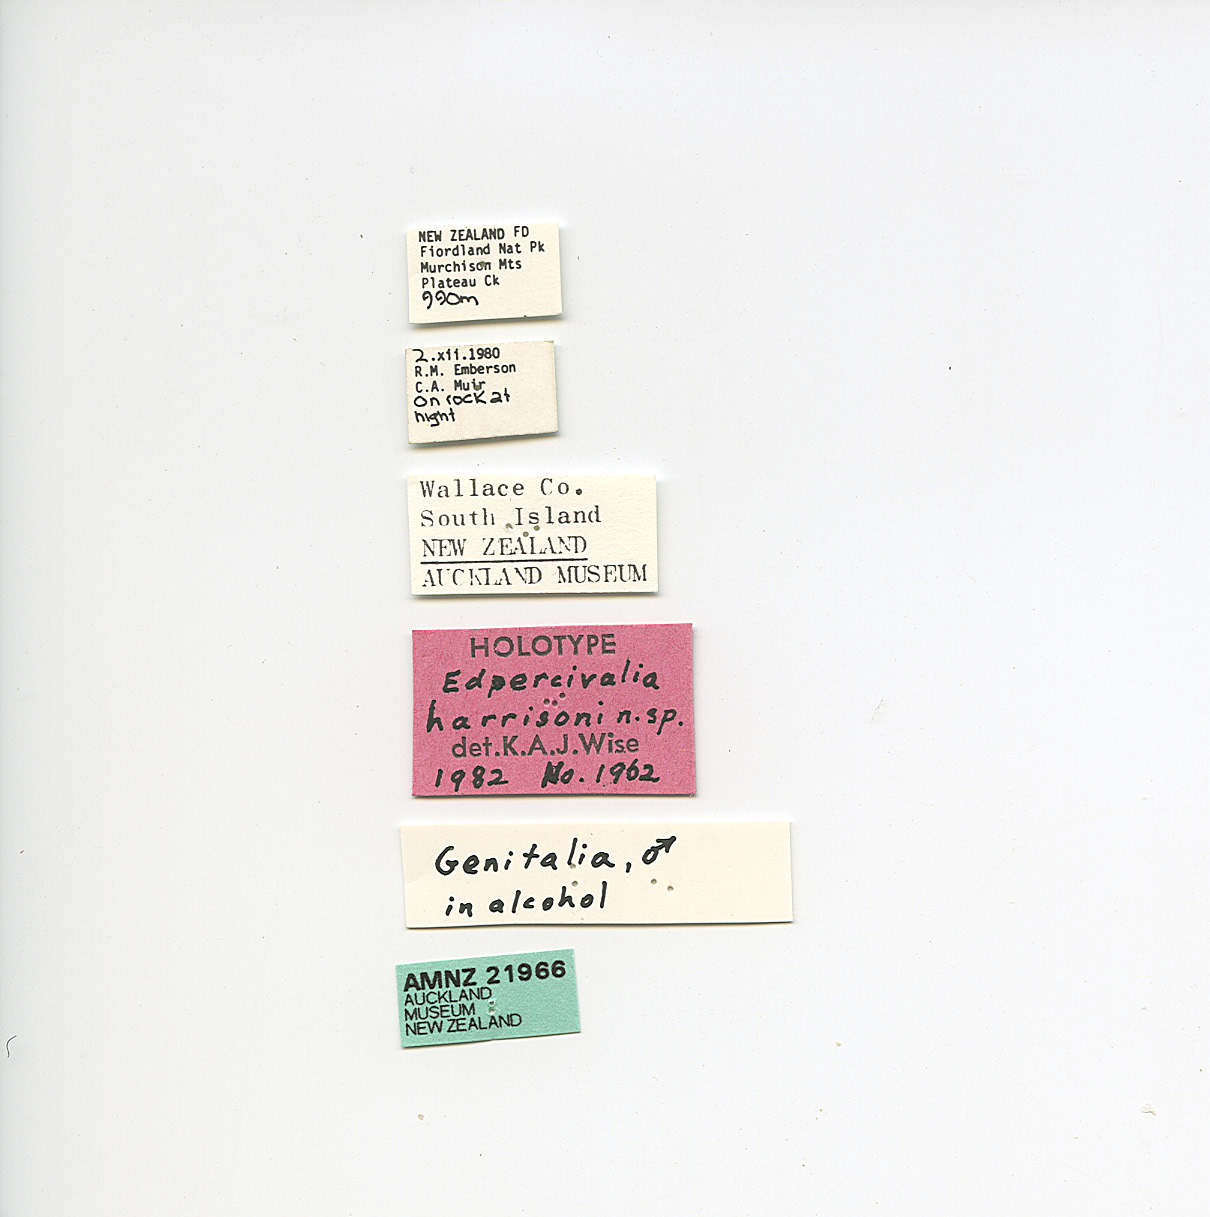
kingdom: Animalia
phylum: Arthropoda
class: Insecta
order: Trichoptera
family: Hydrobiosidae
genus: Edpercivalia
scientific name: Edpercivalia harrisoni
